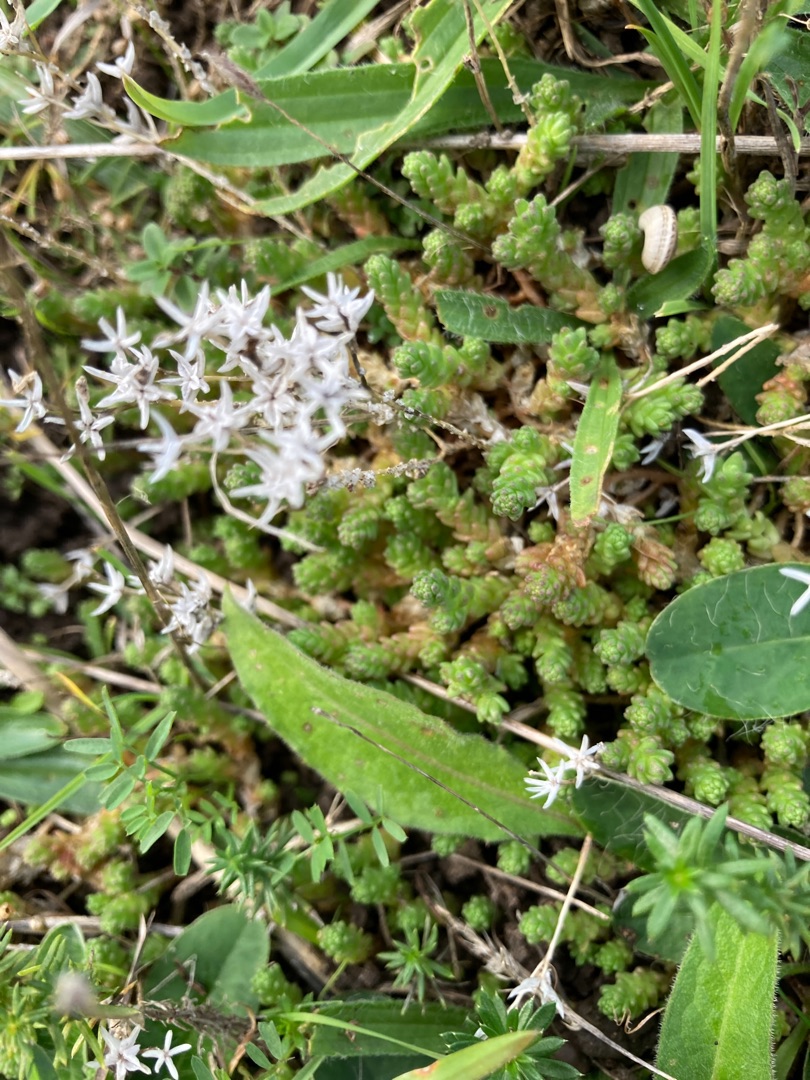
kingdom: Plantae
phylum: Tracheophyta
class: Magnoliopsida
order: Saxifragales
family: Crassulaceae
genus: Sedum
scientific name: Sedum acre
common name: Bidende stenurt
